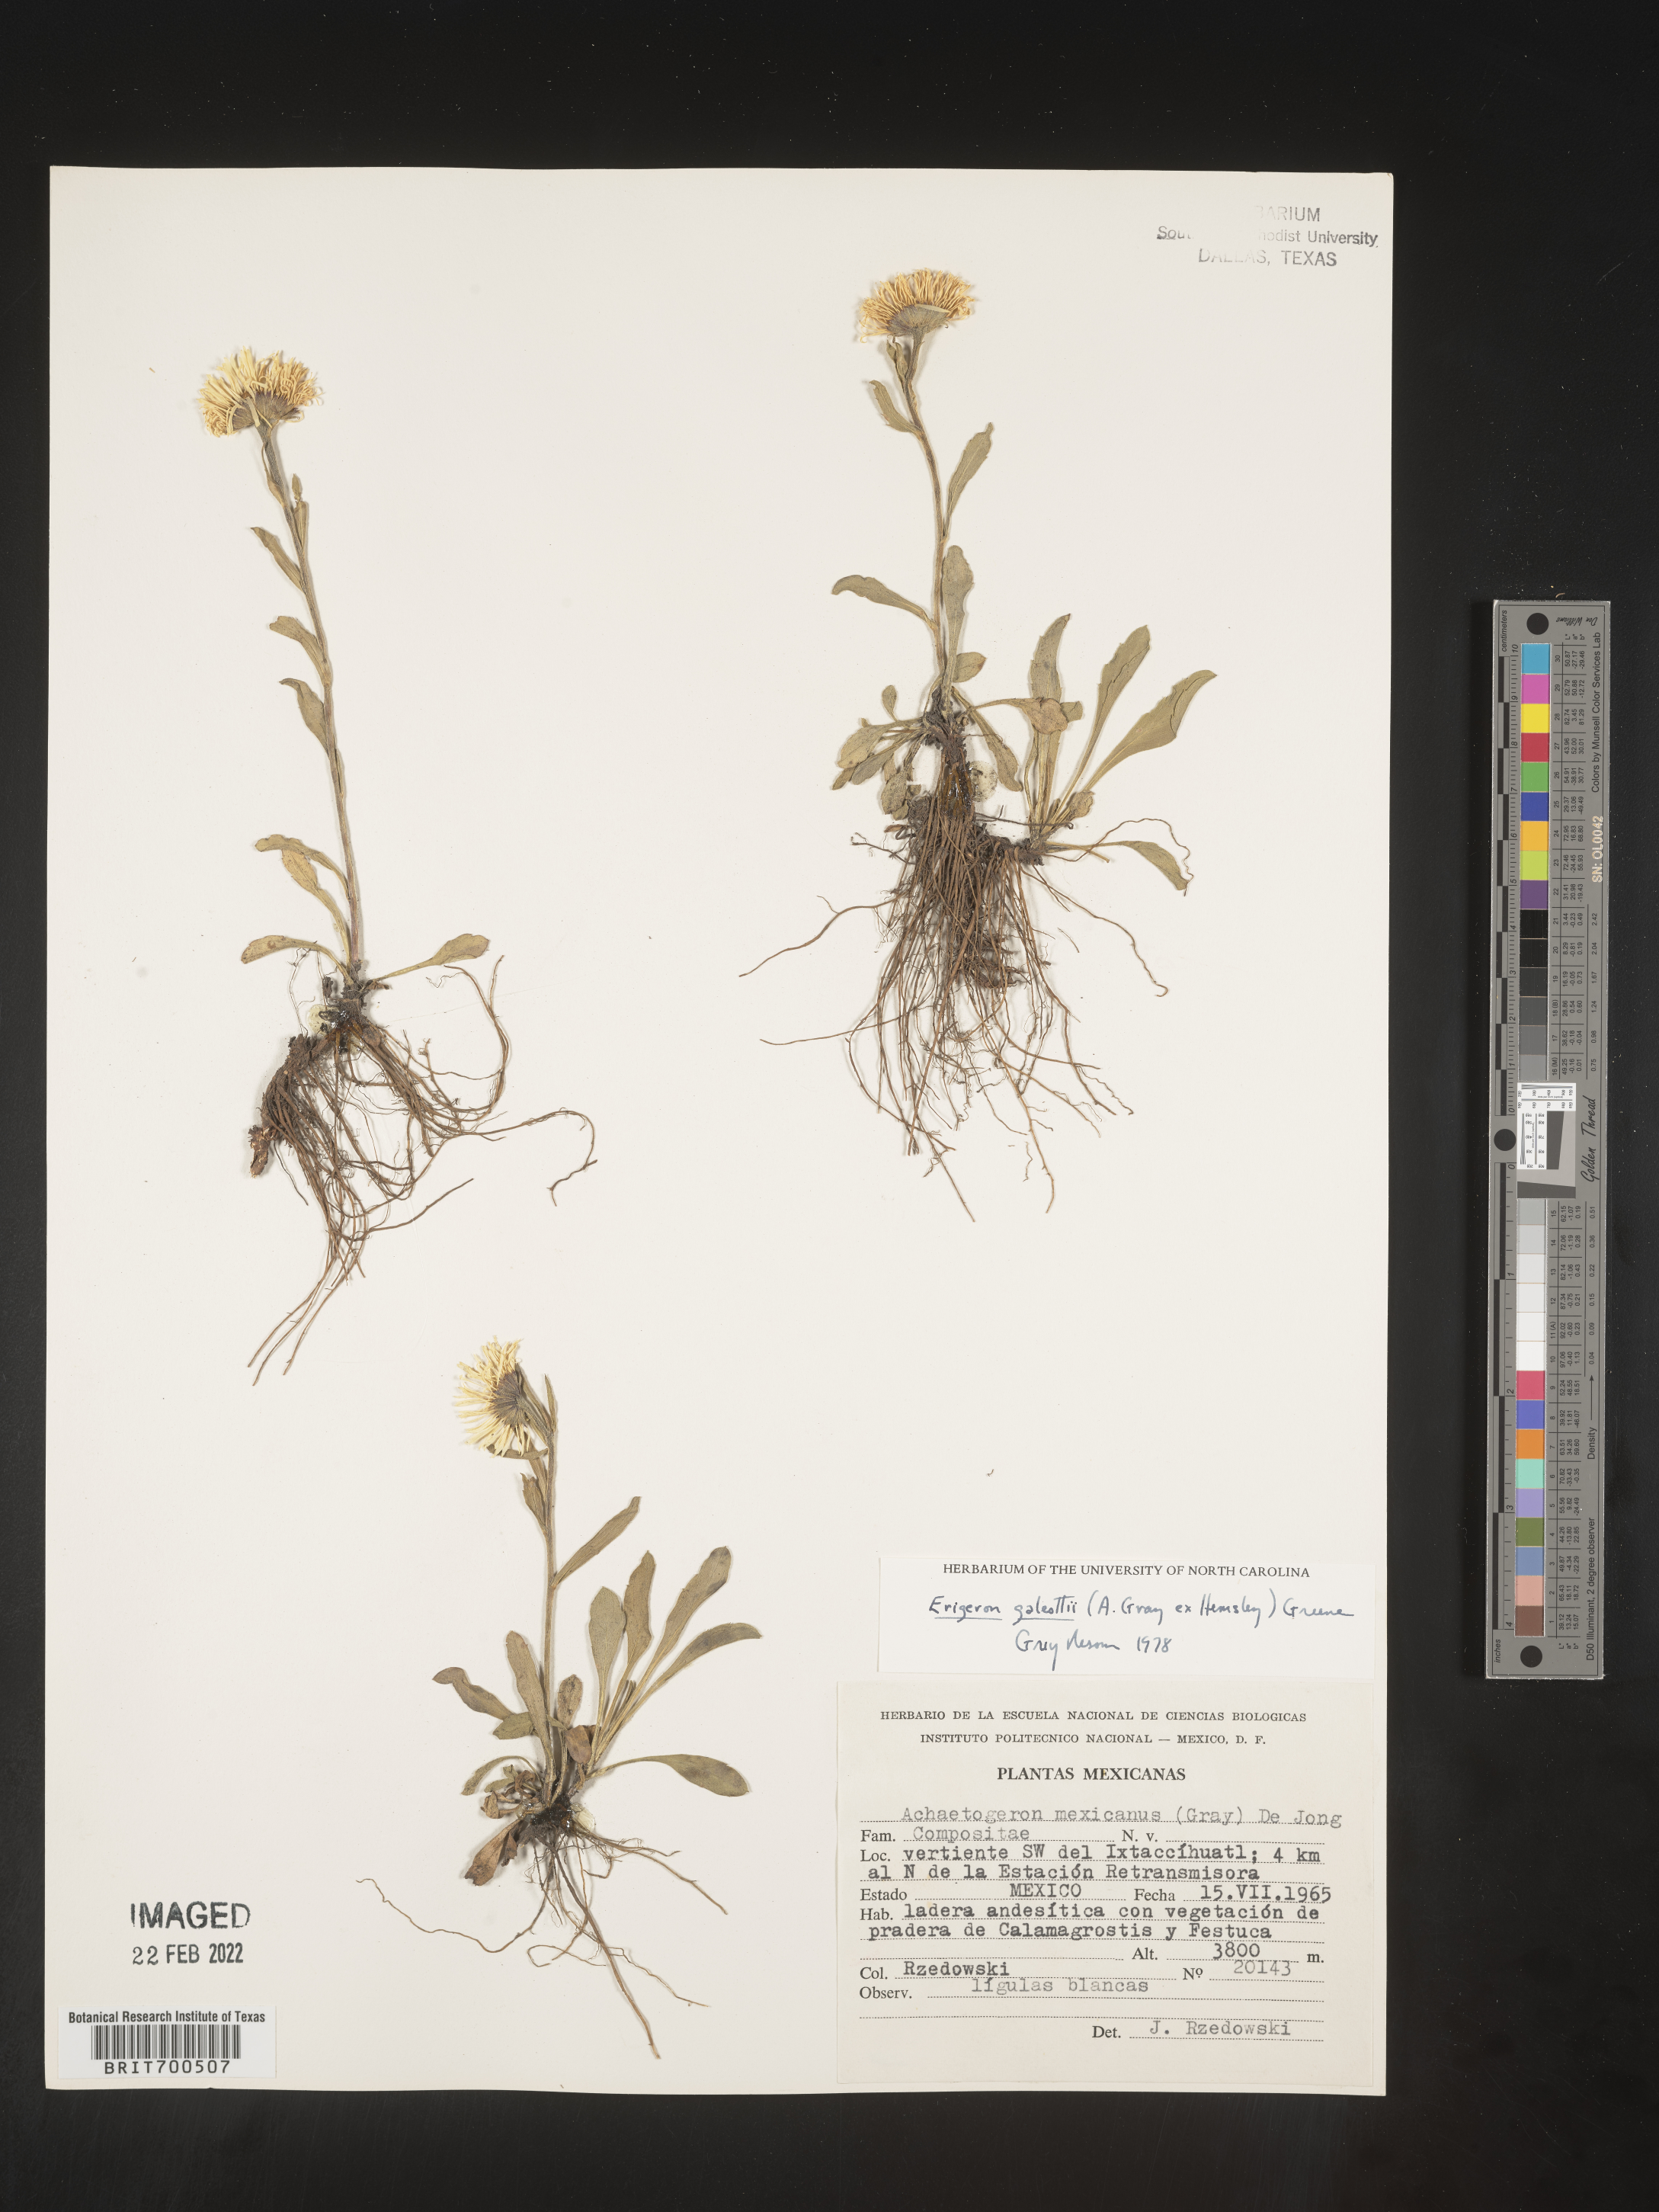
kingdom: Plantae
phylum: Tracheophyta
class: Magnoliopsida
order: Asterales
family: Asteraceae
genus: Erigeron
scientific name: Erigeron
